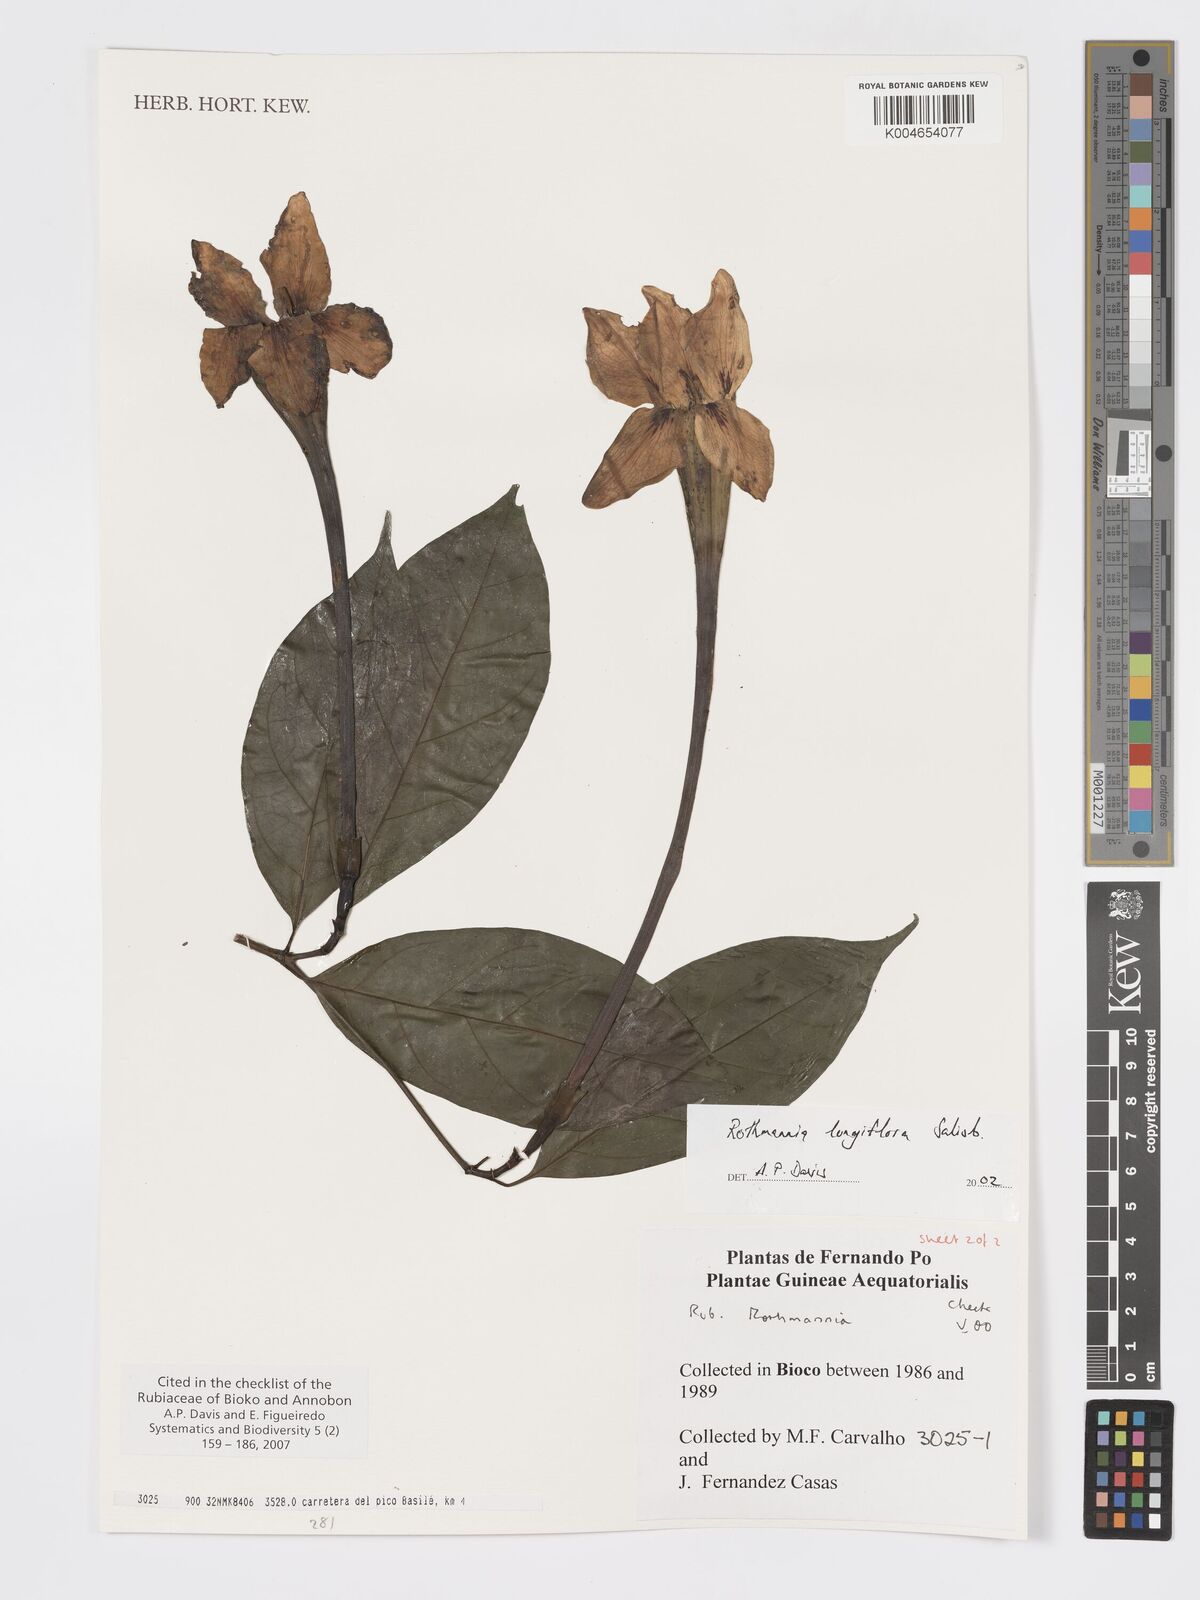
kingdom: Plantae
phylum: Tracheophyta
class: Magnoliopsida
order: Gentianales
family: Rubiaceae
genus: Rothmannia
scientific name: Rothmannia longiflora
